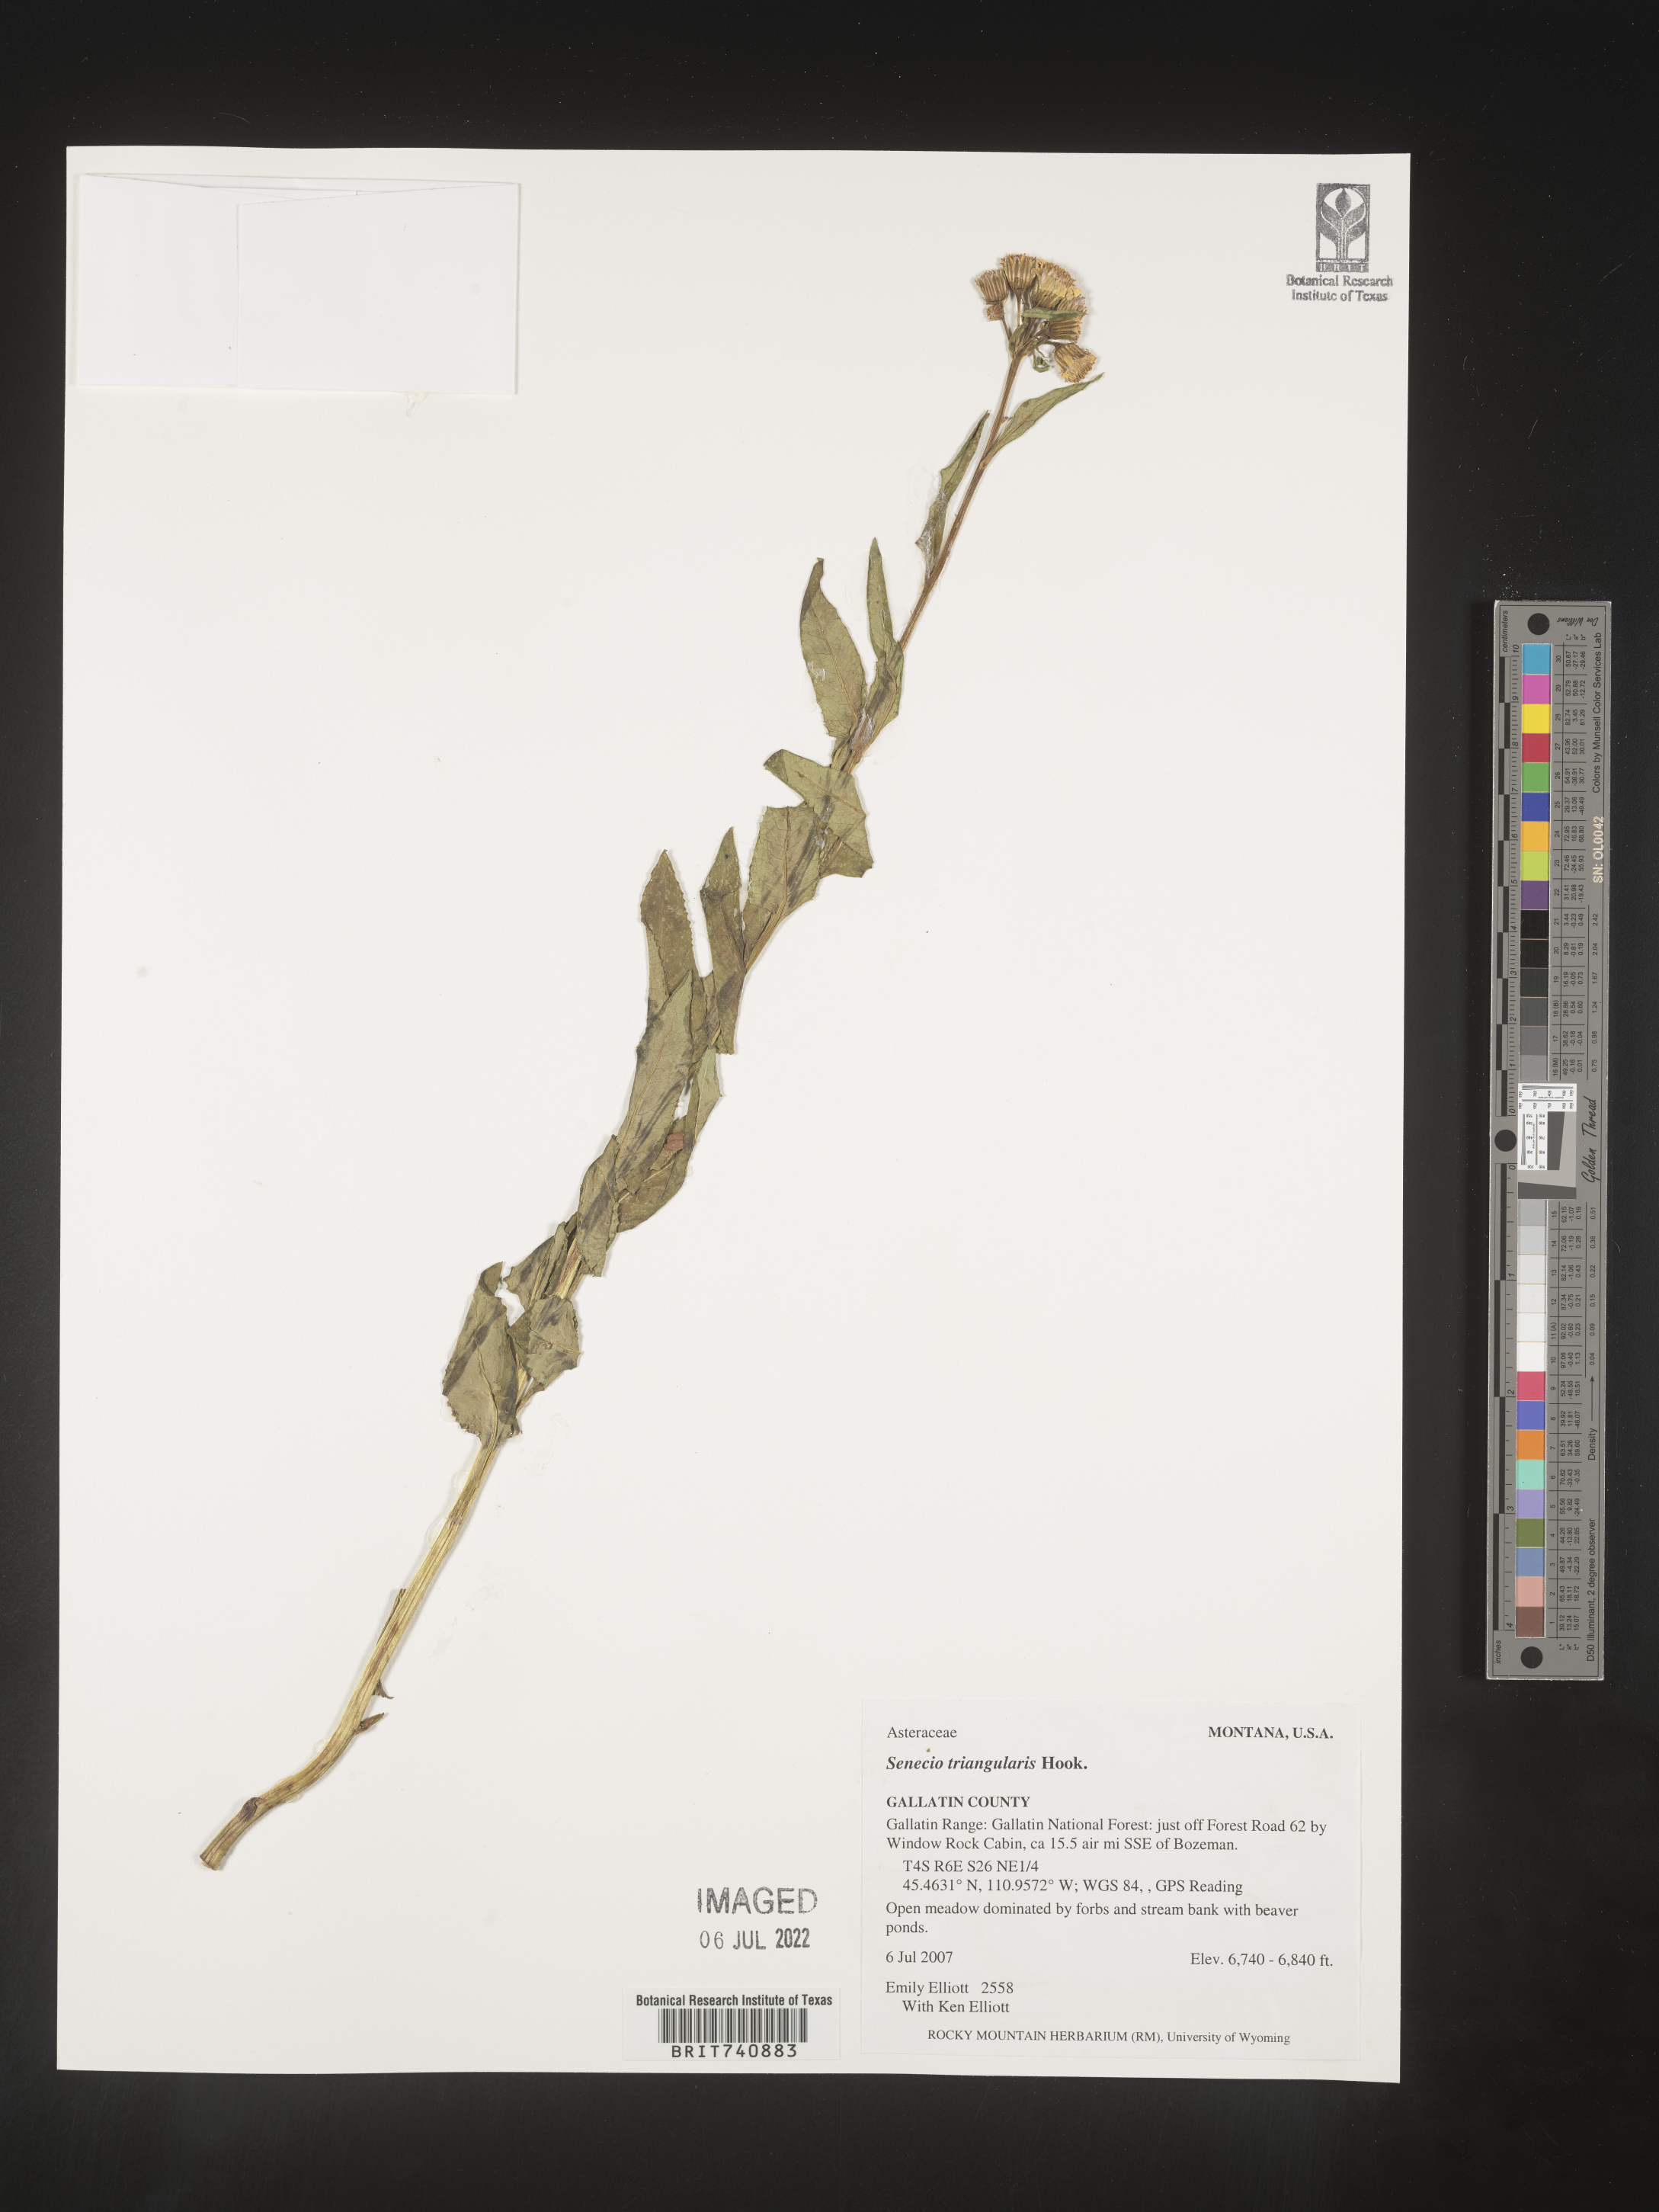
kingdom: Plantae
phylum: Tracheophyta
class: Magnoliopsida
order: Asterales
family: Asteraceae
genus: Senecio
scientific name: Senecio triangularis
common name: Arrowleaf butterweed
